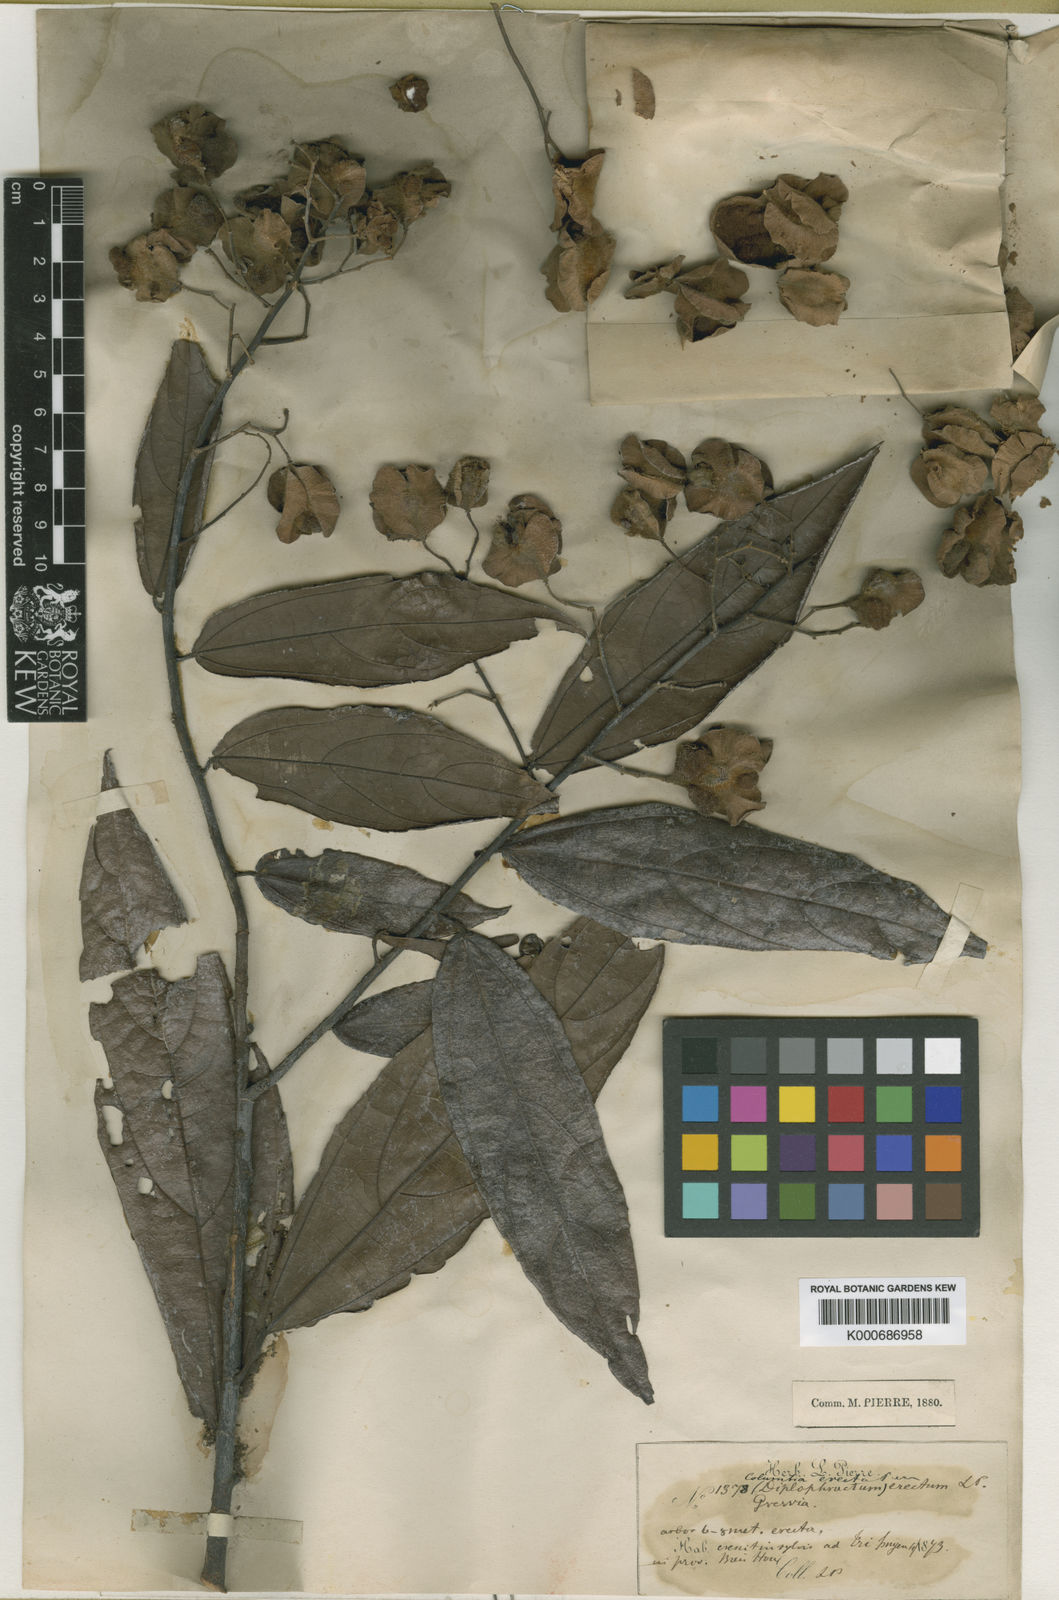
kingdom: Plantae
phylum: Tracheophyta
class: Magnoliopsida
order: Malvales
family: Malvaceae
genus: Colona
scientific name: Colona
